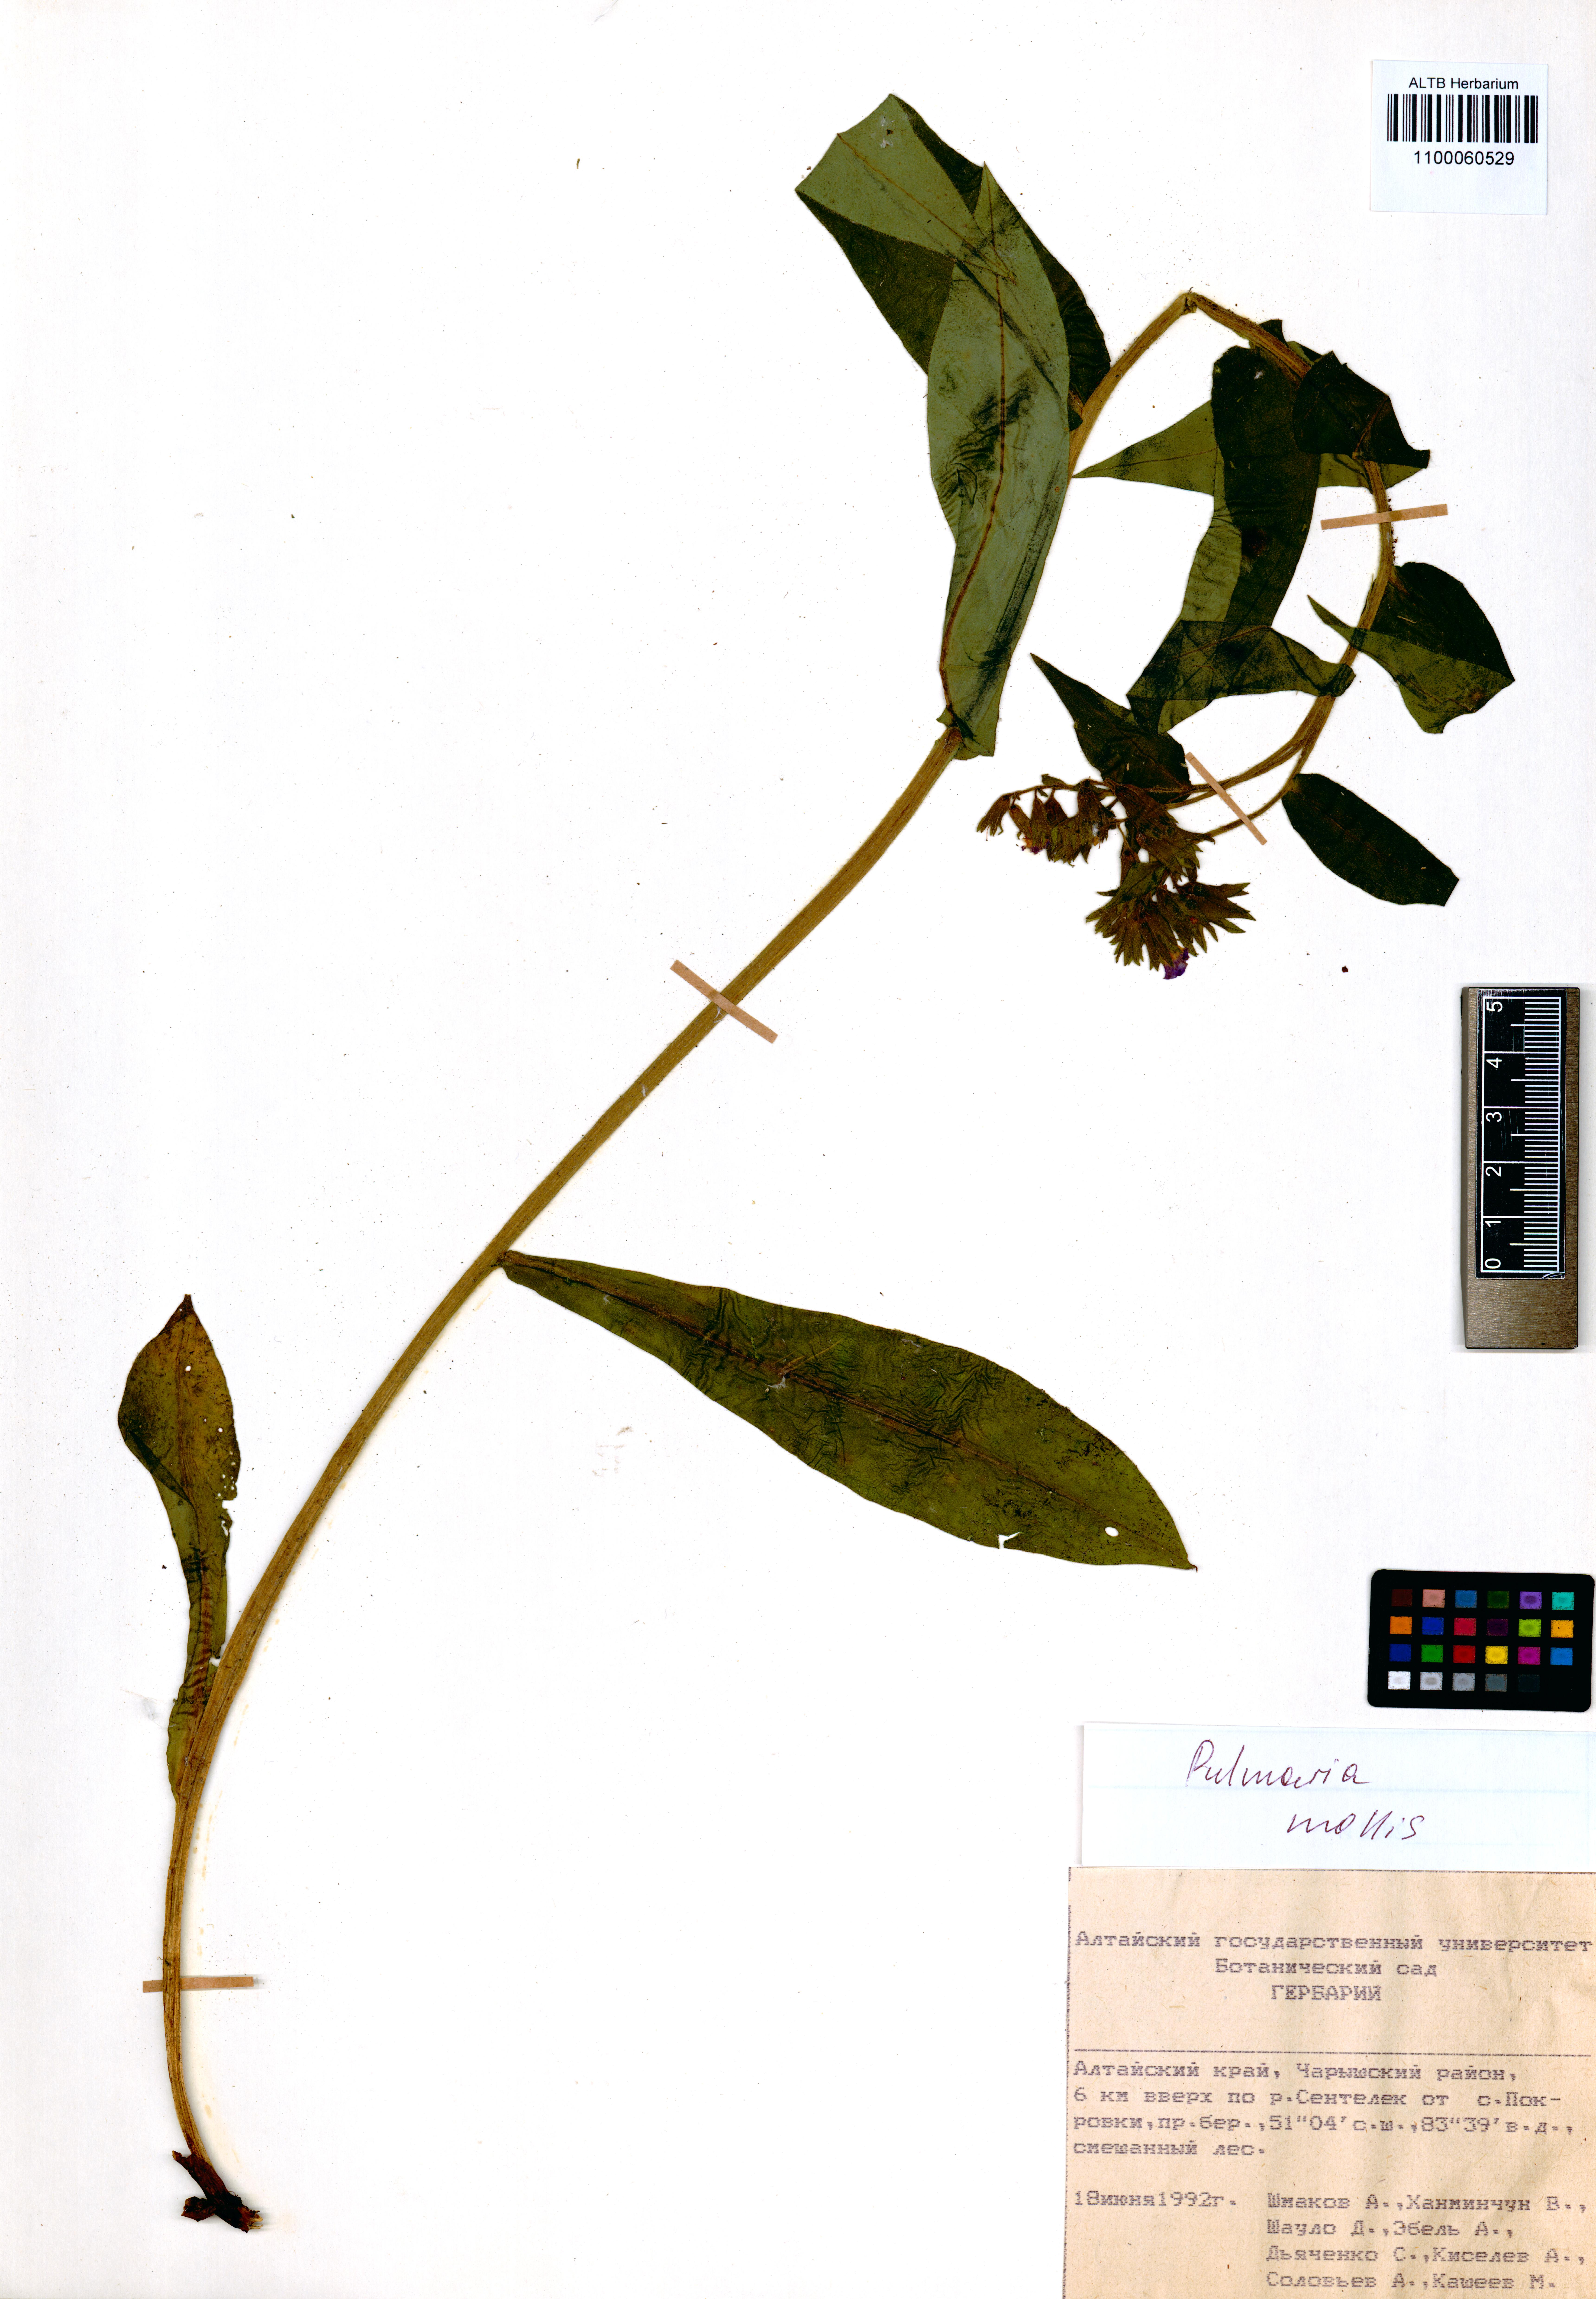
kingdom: Plantae
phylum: Tracheophyta
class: Magnoliopsida
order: Boraginales
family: Boraginaceae
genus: Pulmonaria
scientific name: Pulmonaria mollis
